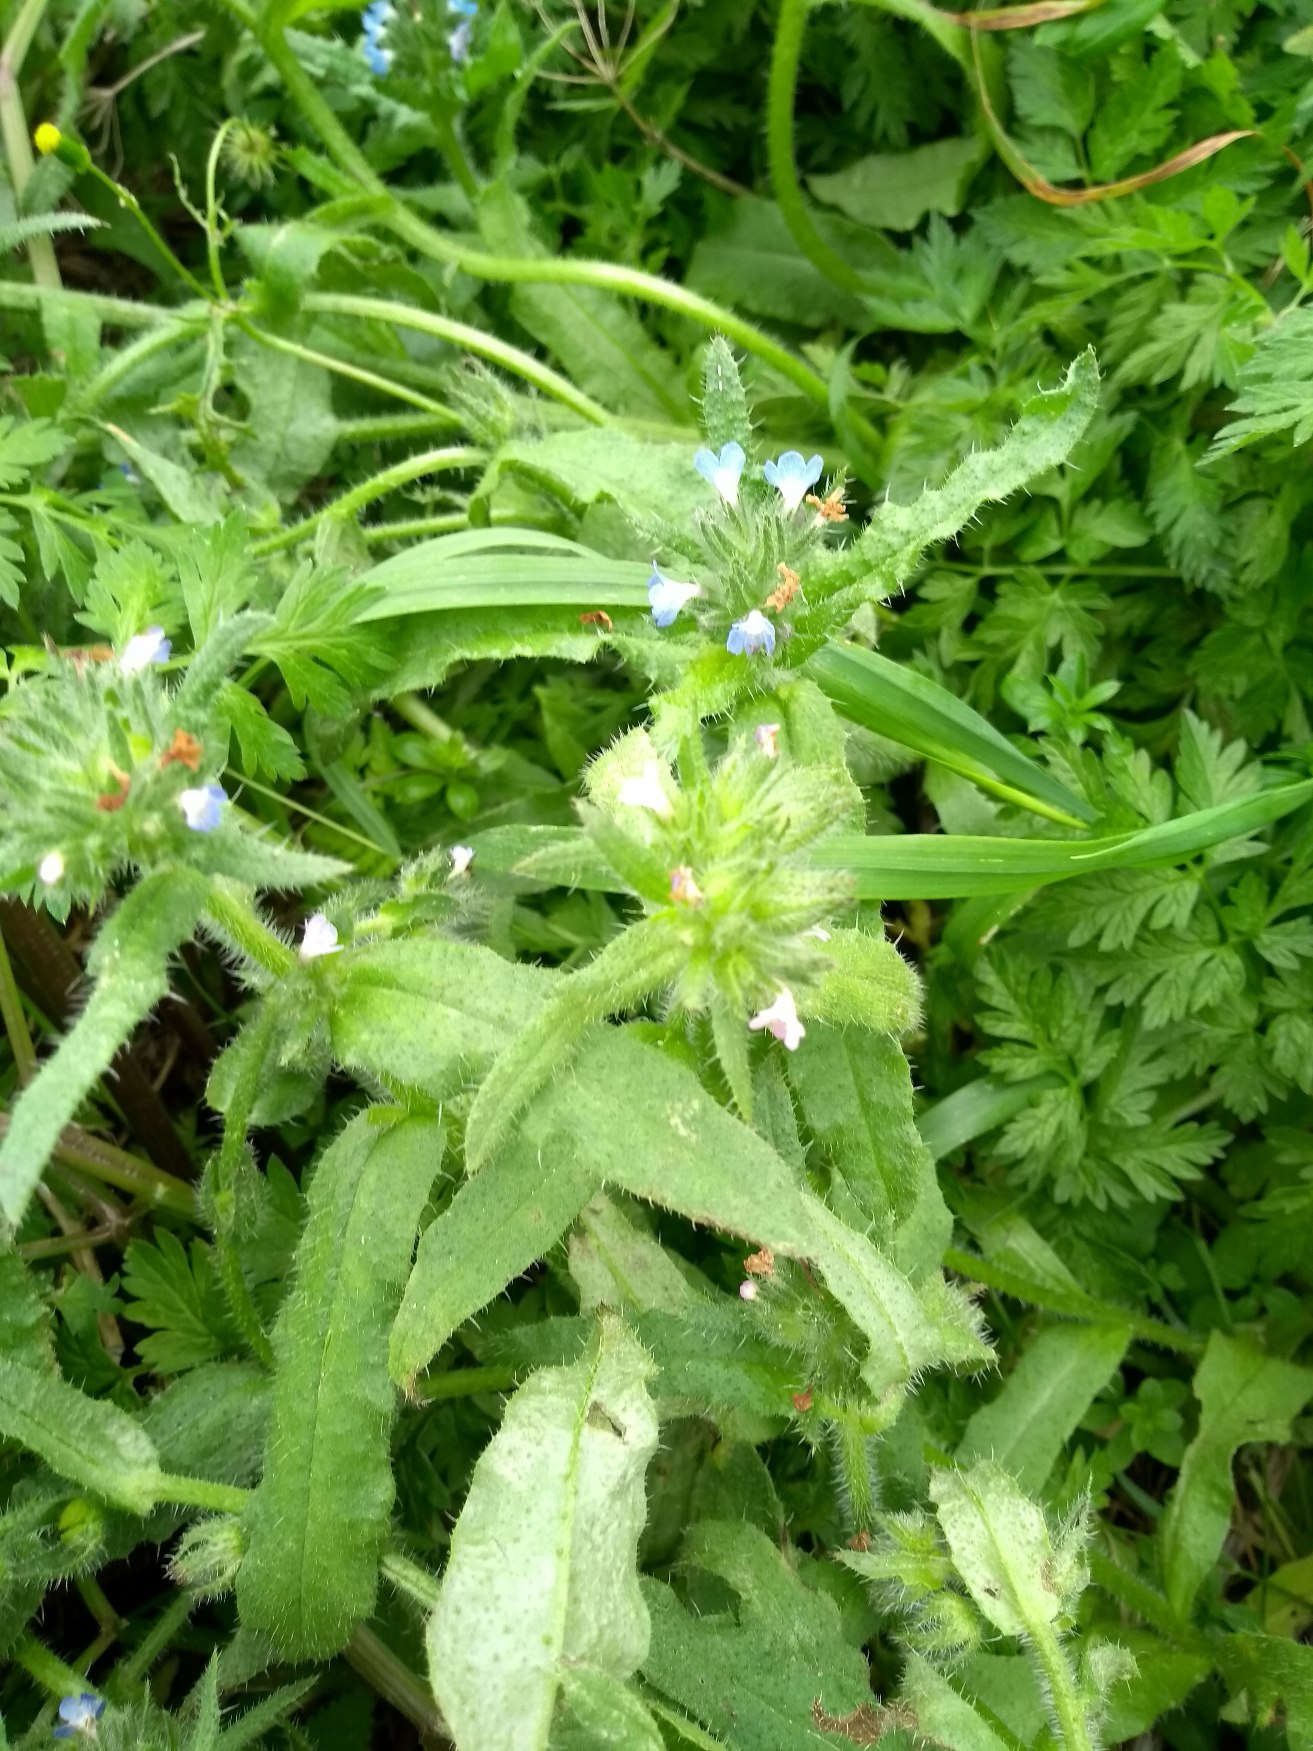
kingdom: Plantae
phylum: Tracheophyta
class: Magnoliopsida
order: Boraginales
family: Boraginaceae
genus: Lycopsis
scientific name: Lycopsis arvensis
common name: Krumhals
